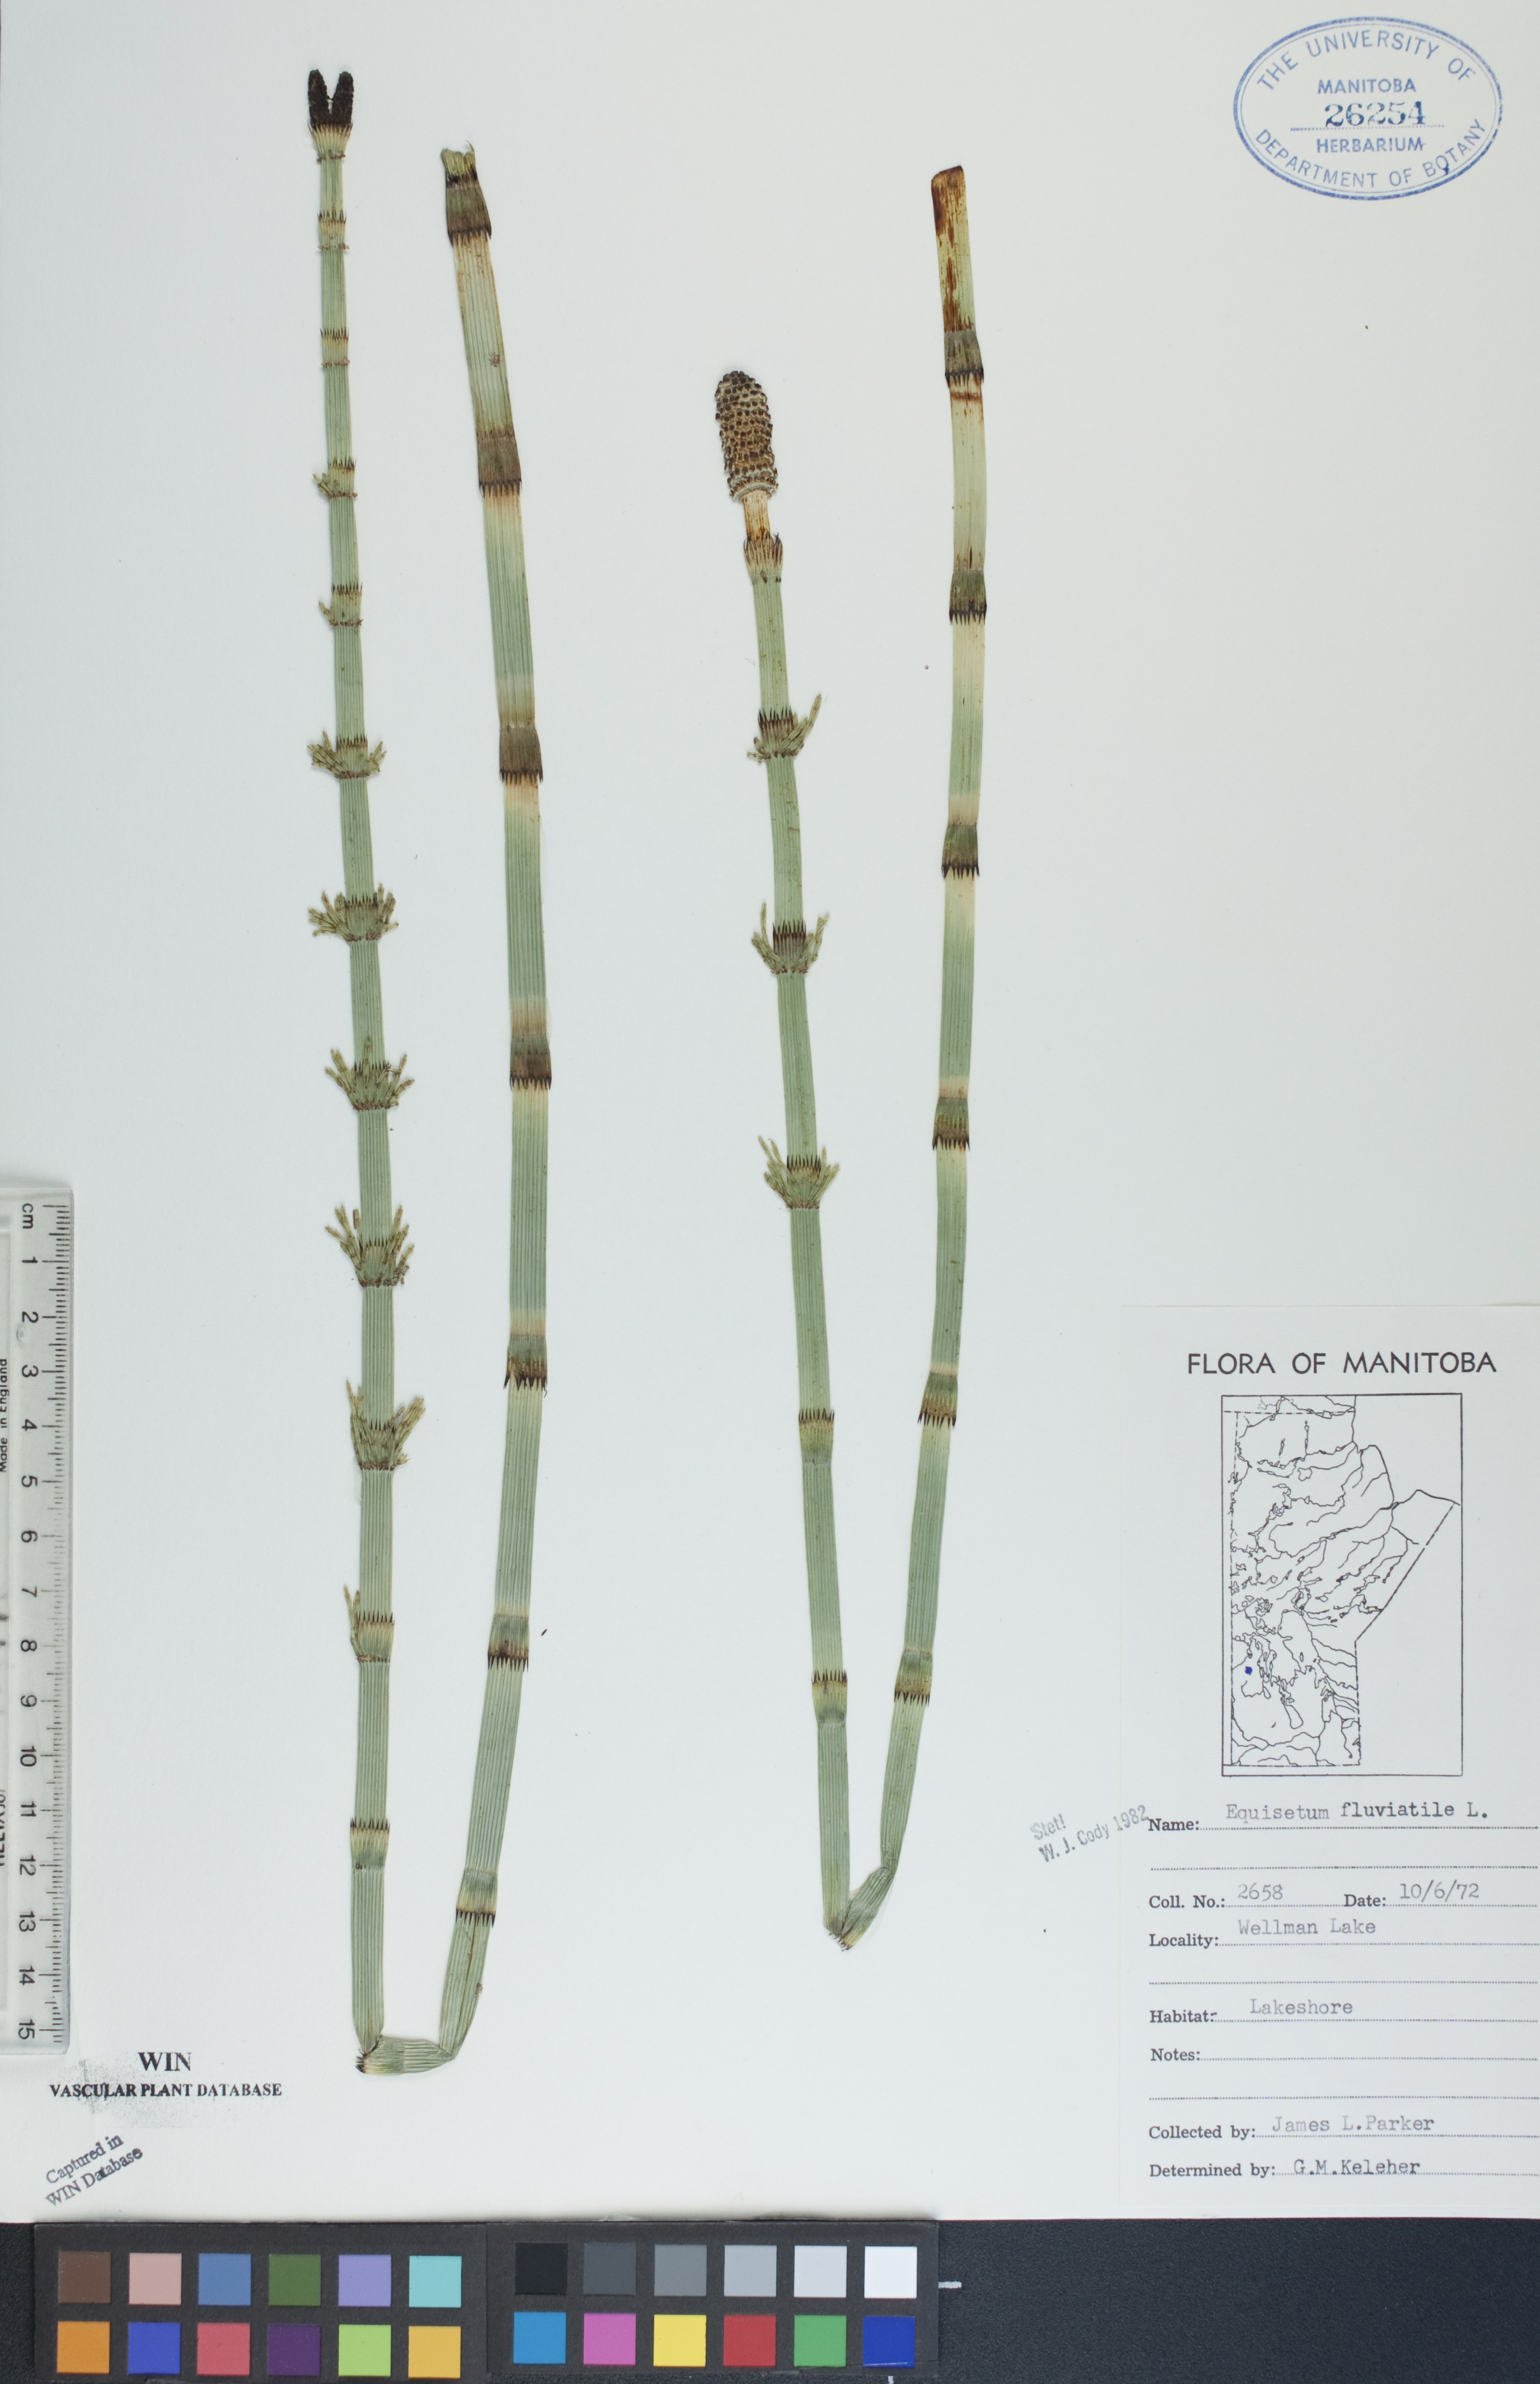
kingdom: Plantae
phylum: Tracheophyta
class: Polypodiopsida
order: Equisetales
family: Equisetaceae
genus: Equisetum
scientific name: Equisetum fluviatile
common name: Water horsetail
